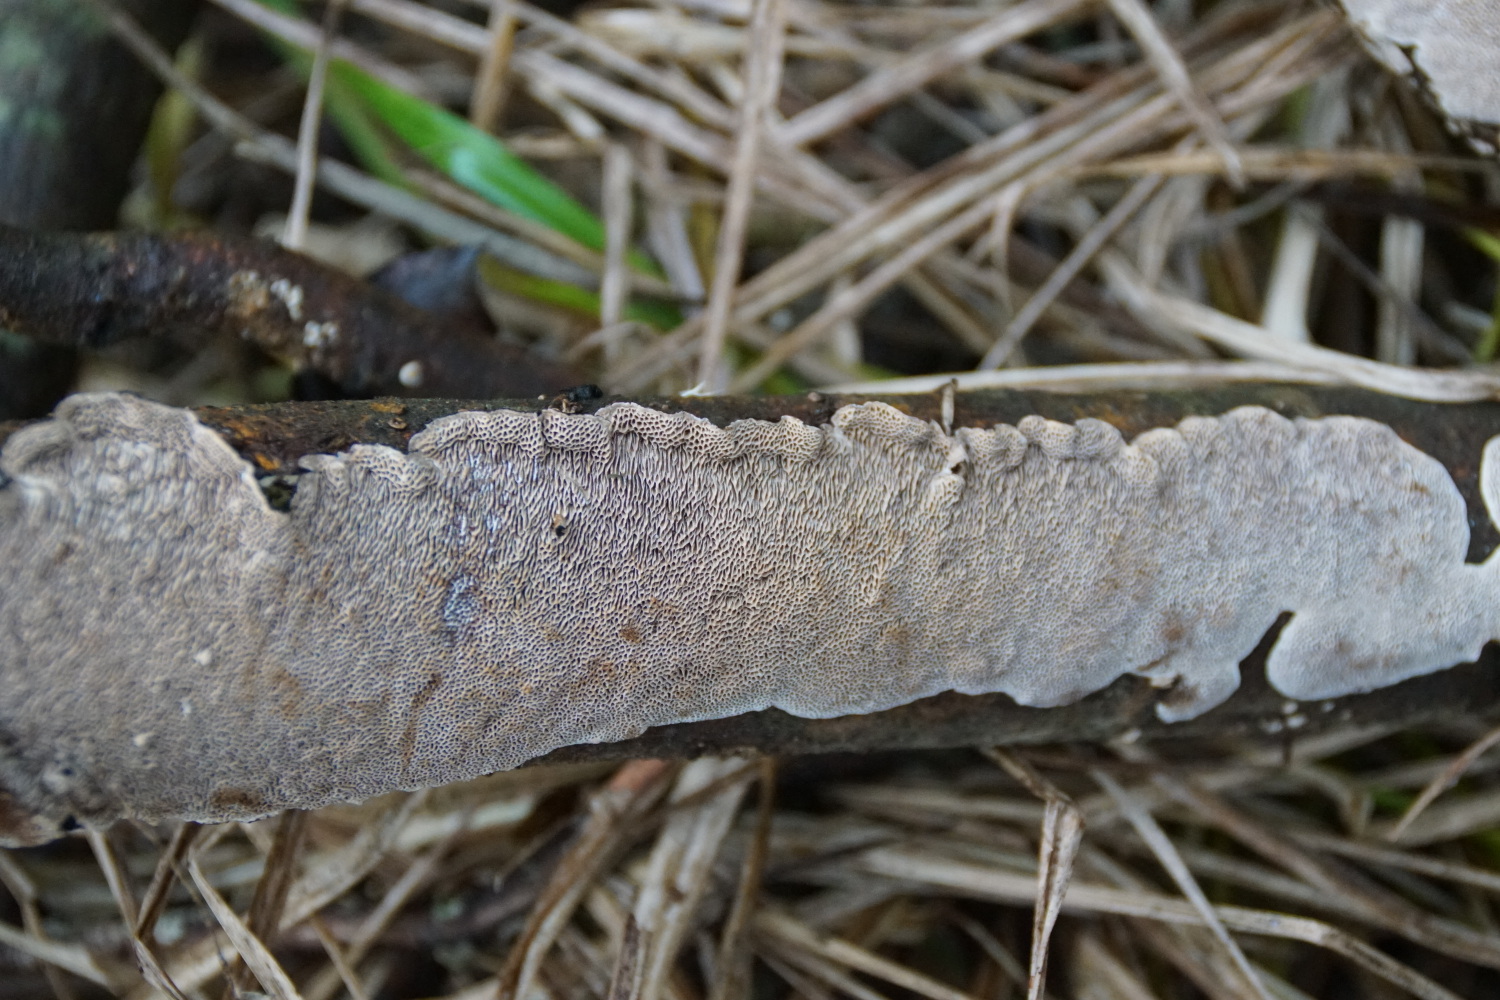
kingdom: Fungi
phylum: Basidiomycota
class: Agaricomycetes
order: Polyporales
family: Polyporaceae
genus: Podofomes
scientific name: Podofomes mollis
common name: blød begporesvamp
